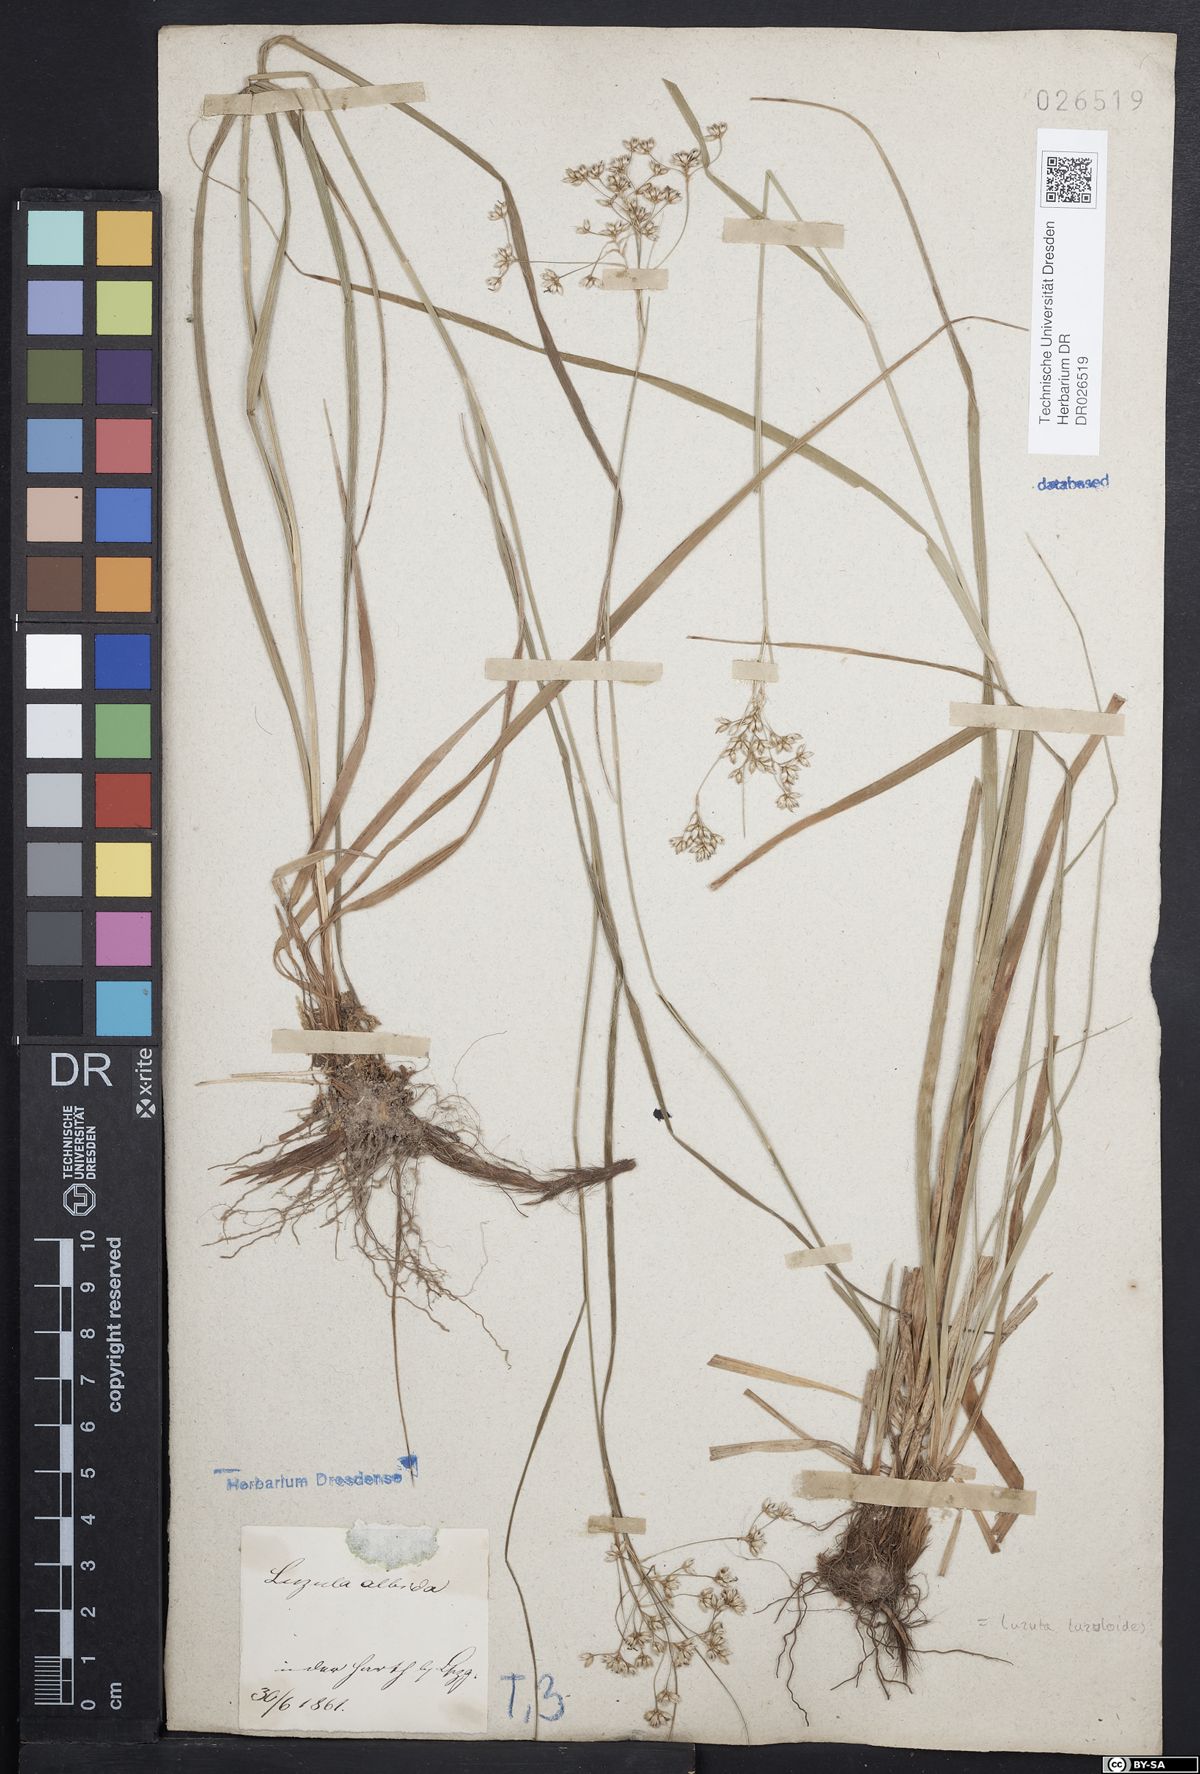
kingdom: Plantae
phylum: Tracheophyta
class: Liliopsida
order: Poales
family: Juncaceae
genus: Luzula
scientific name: Luzula luzuloides
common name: White wood-rush
